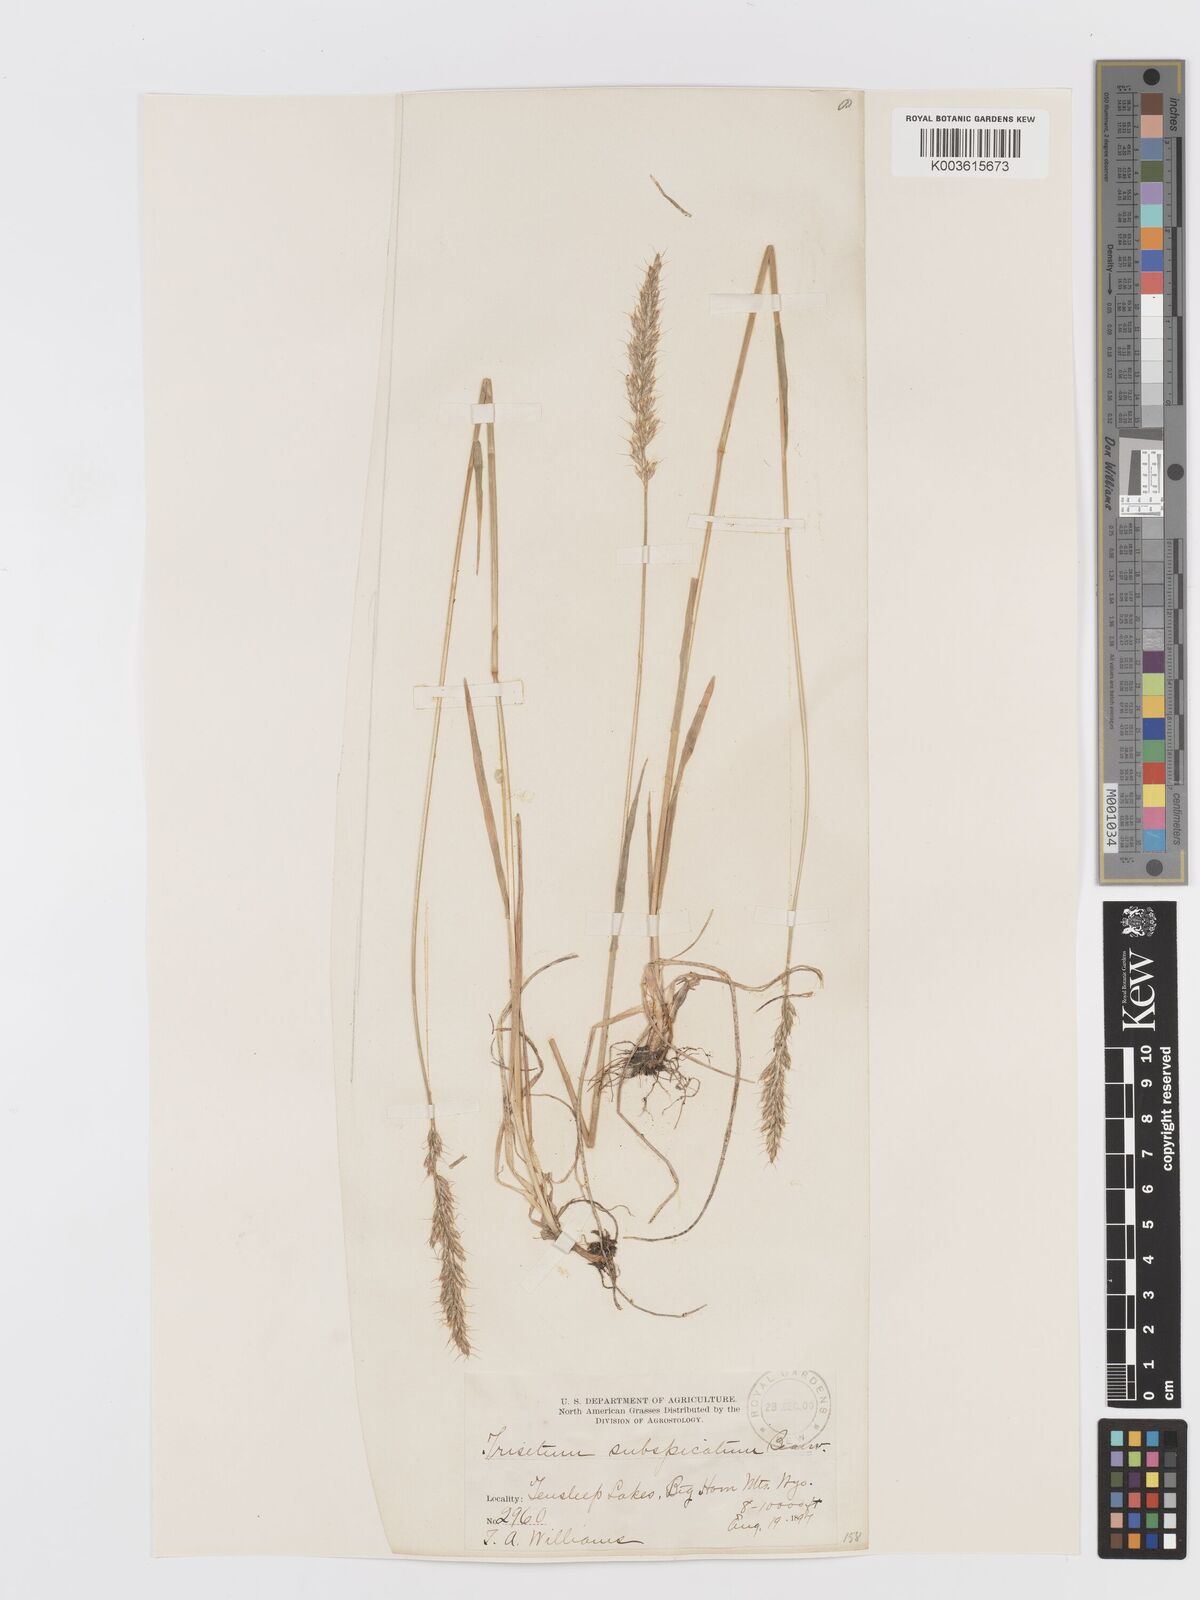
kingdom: Plantae
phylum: Tracheophyta
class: Liliopsida
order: Poales
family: Poaceae
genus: Koeleria
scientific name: Koeleria spicata
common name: Mountain trisetum
